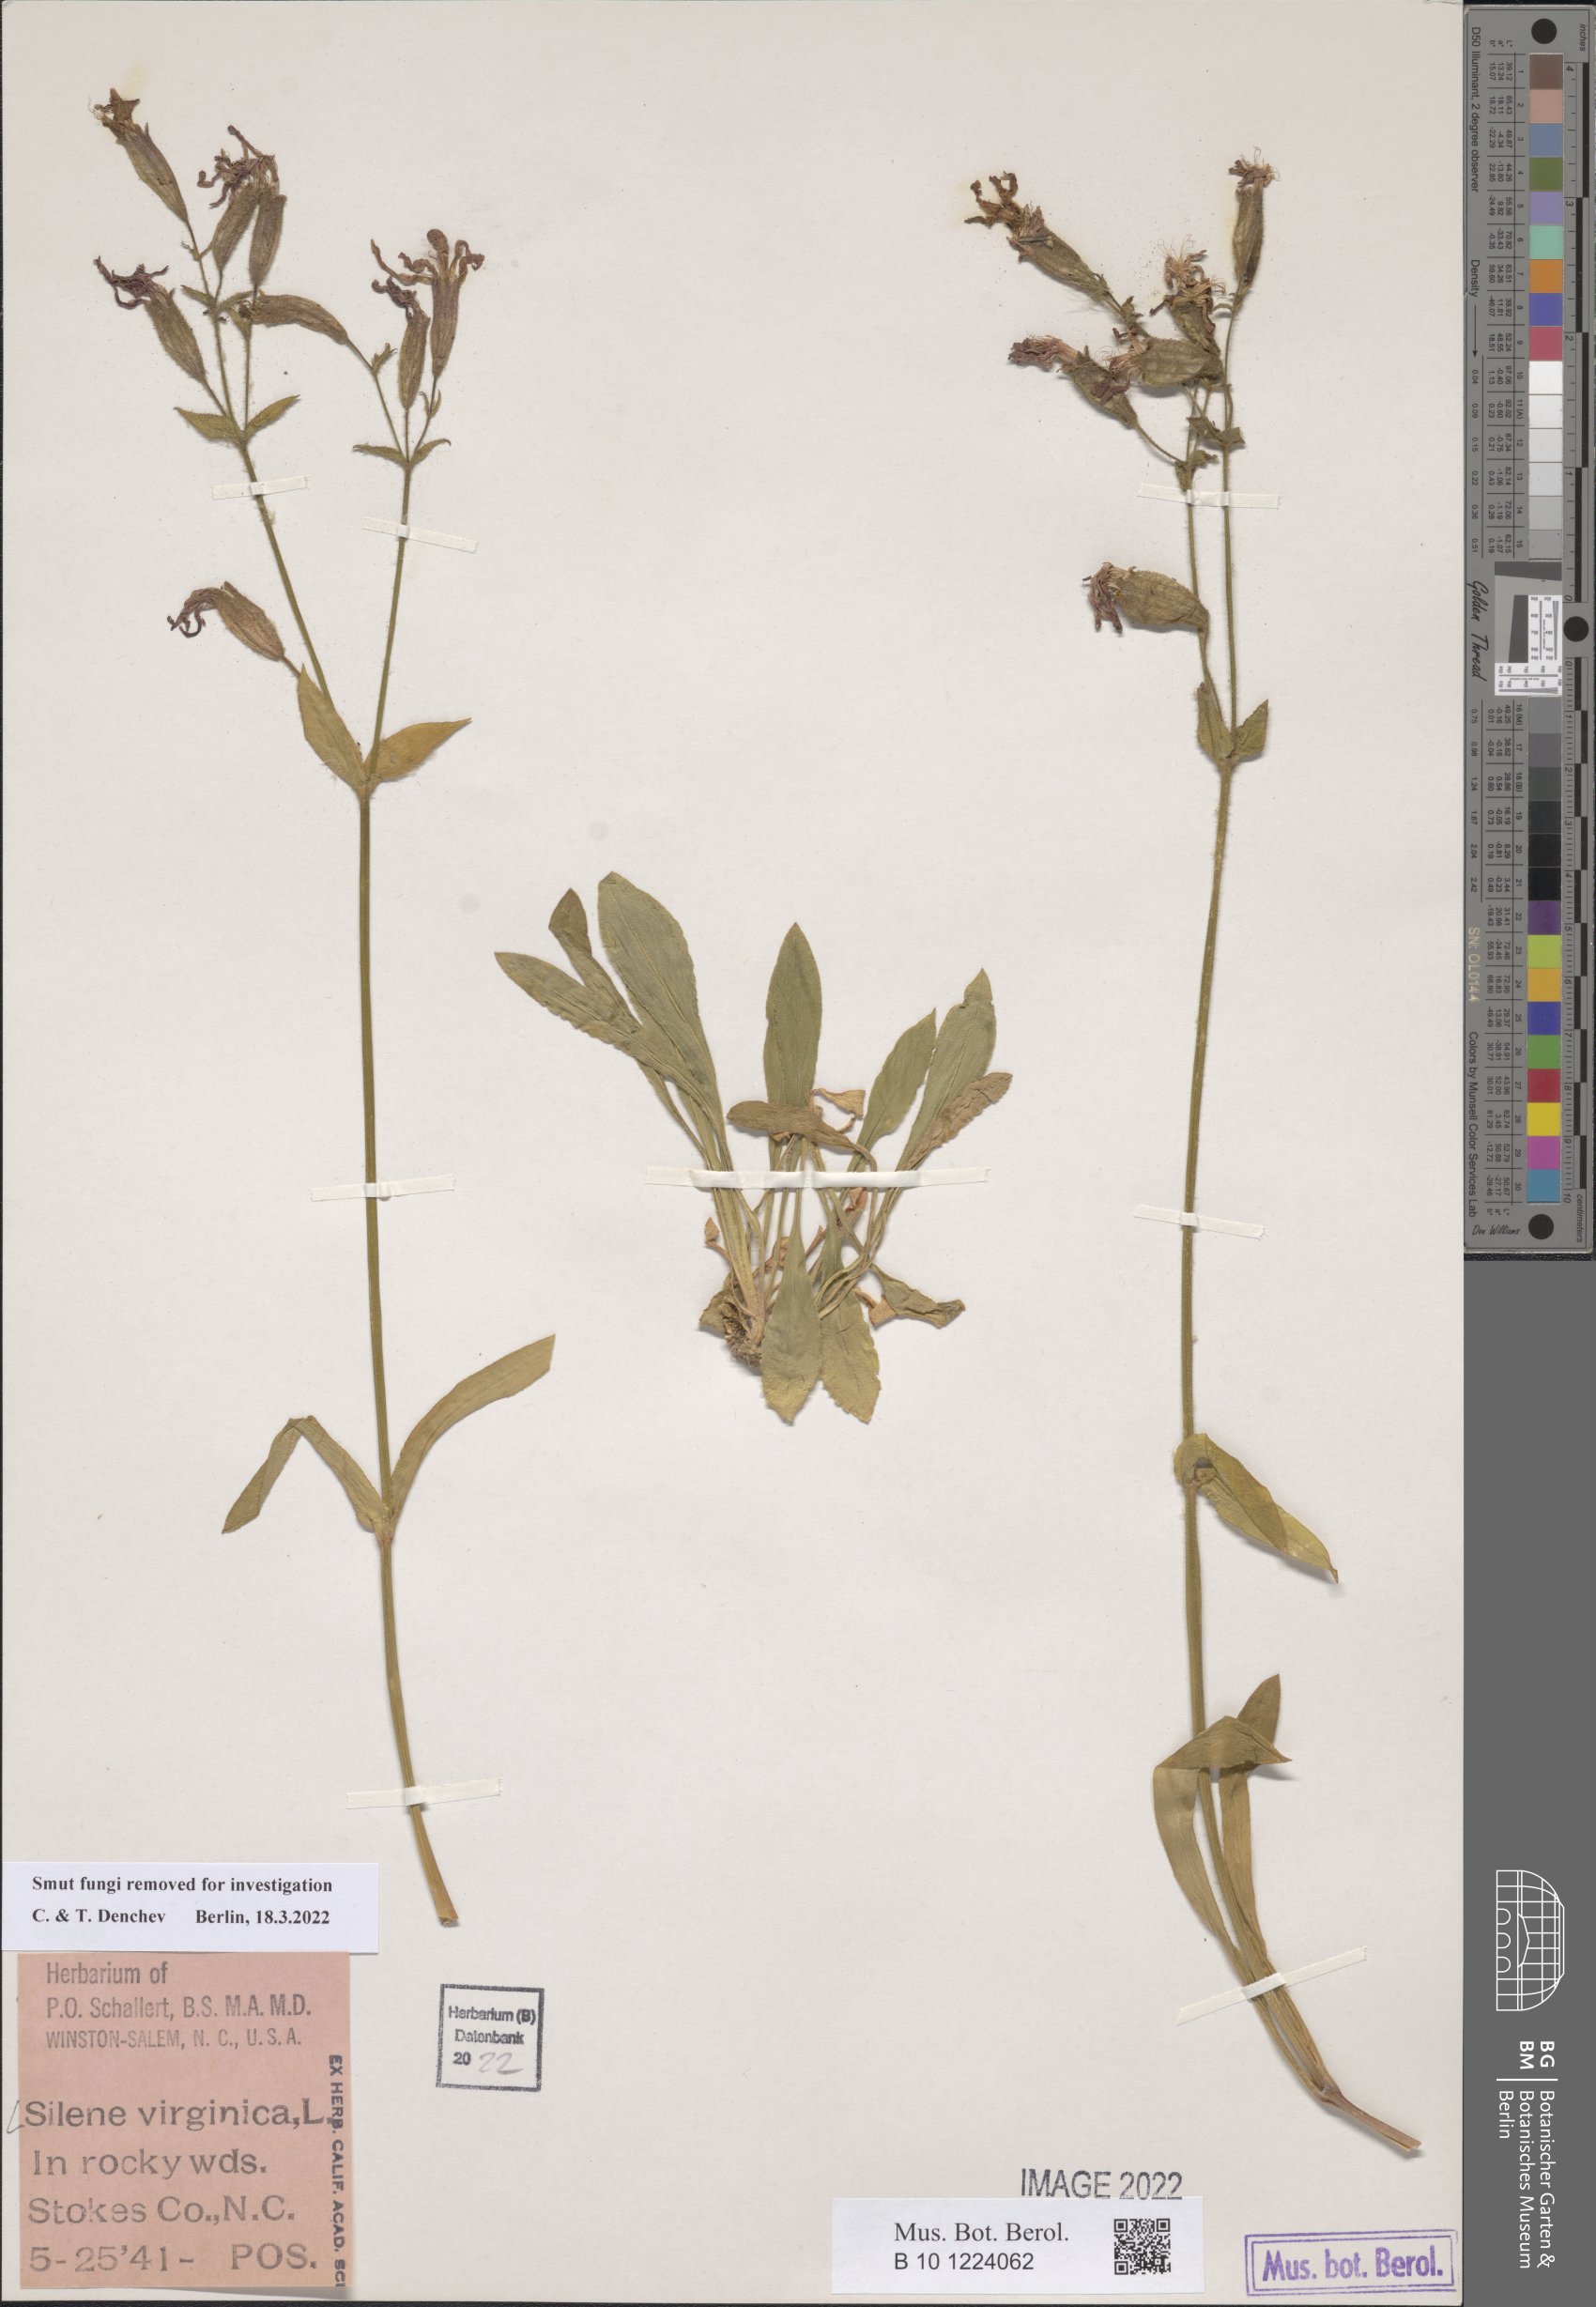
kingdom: Plantae
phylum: Tracheophyta
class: Magnoliopsida
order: Caryophyllales
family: Caryophyllaceae
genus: Silene
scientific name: Silene virginica
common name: Fire-pink
